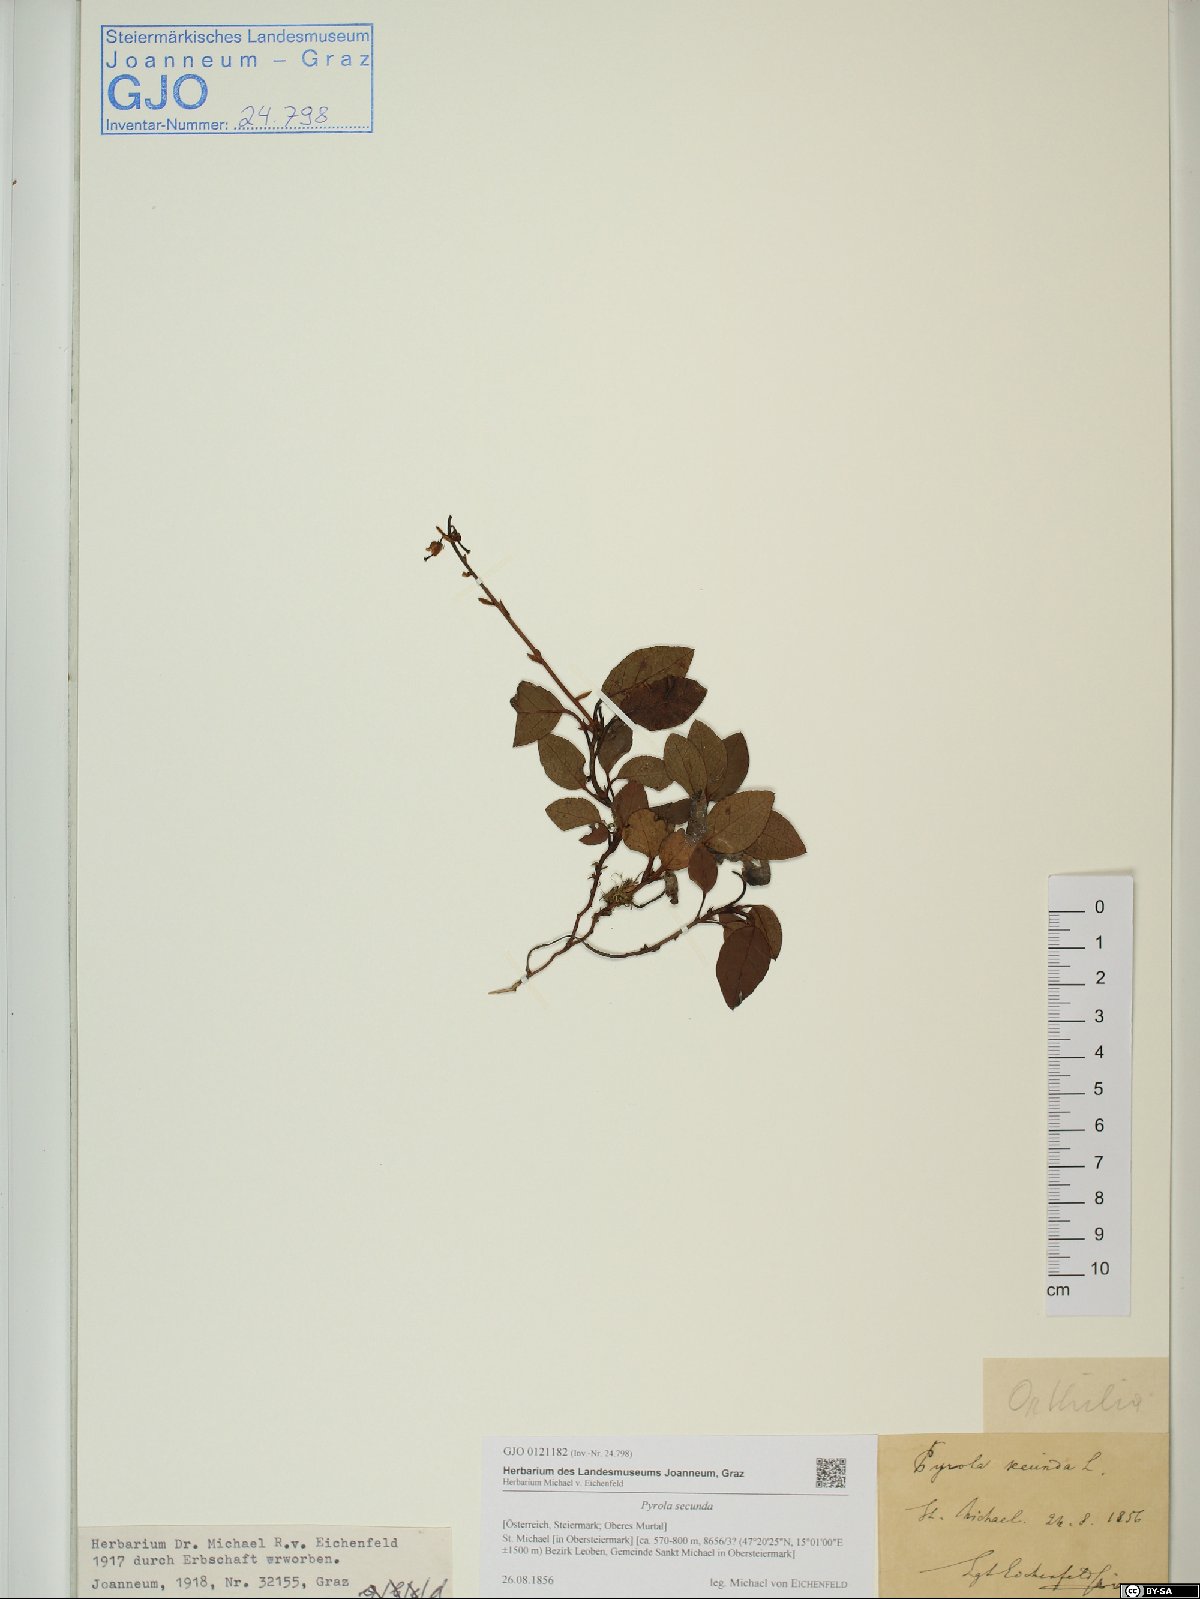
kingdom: Plantae
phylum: Tracheophyta
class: Magnoliopsida
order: Ericales
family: Ericaceae
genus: Orthilia
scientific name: Orthilia secunda
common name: One-sided orthilia
